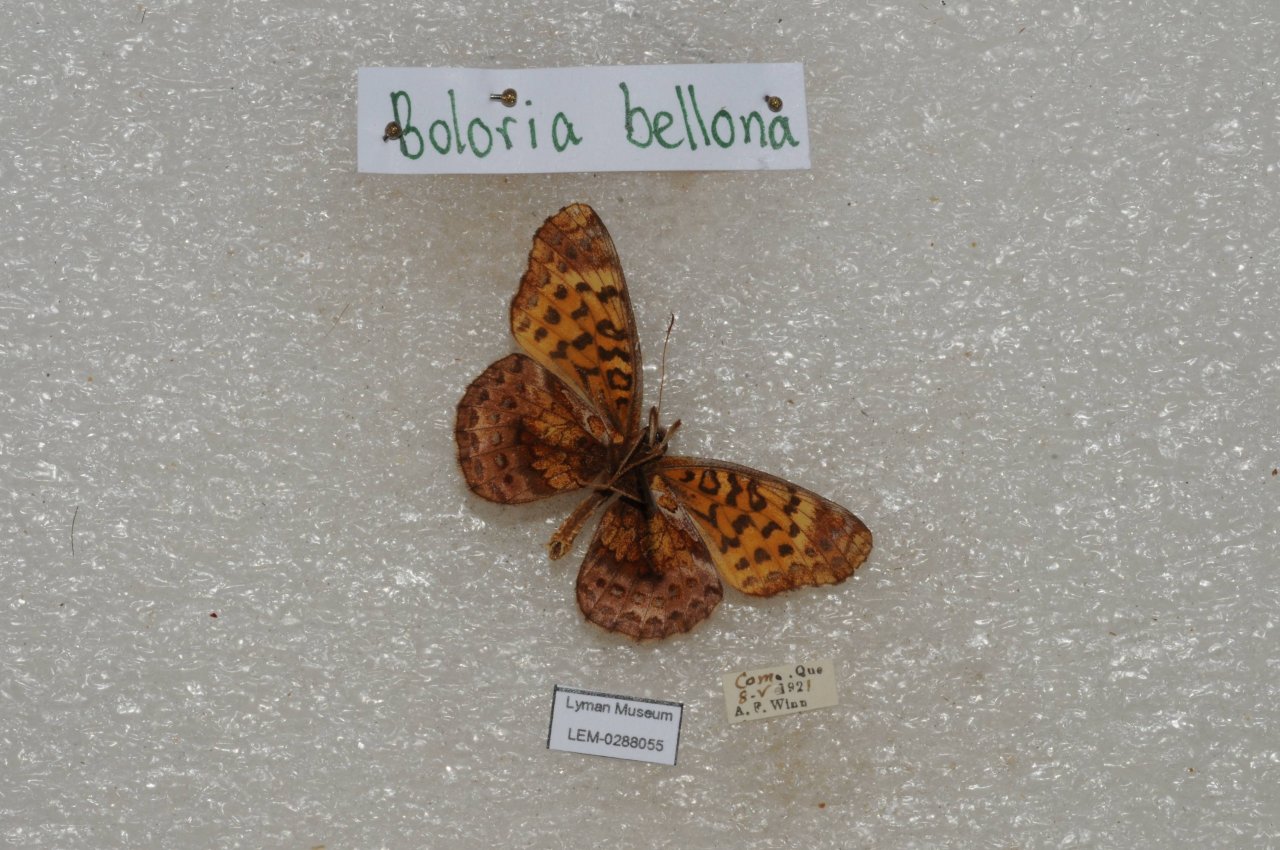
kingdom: Animalia
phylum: Arthropoda
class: Insecta
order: Lepidoptera
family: Nymphalidae
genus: Clossiana
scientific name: Clossiana toddi
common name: Meadow Fritillary
